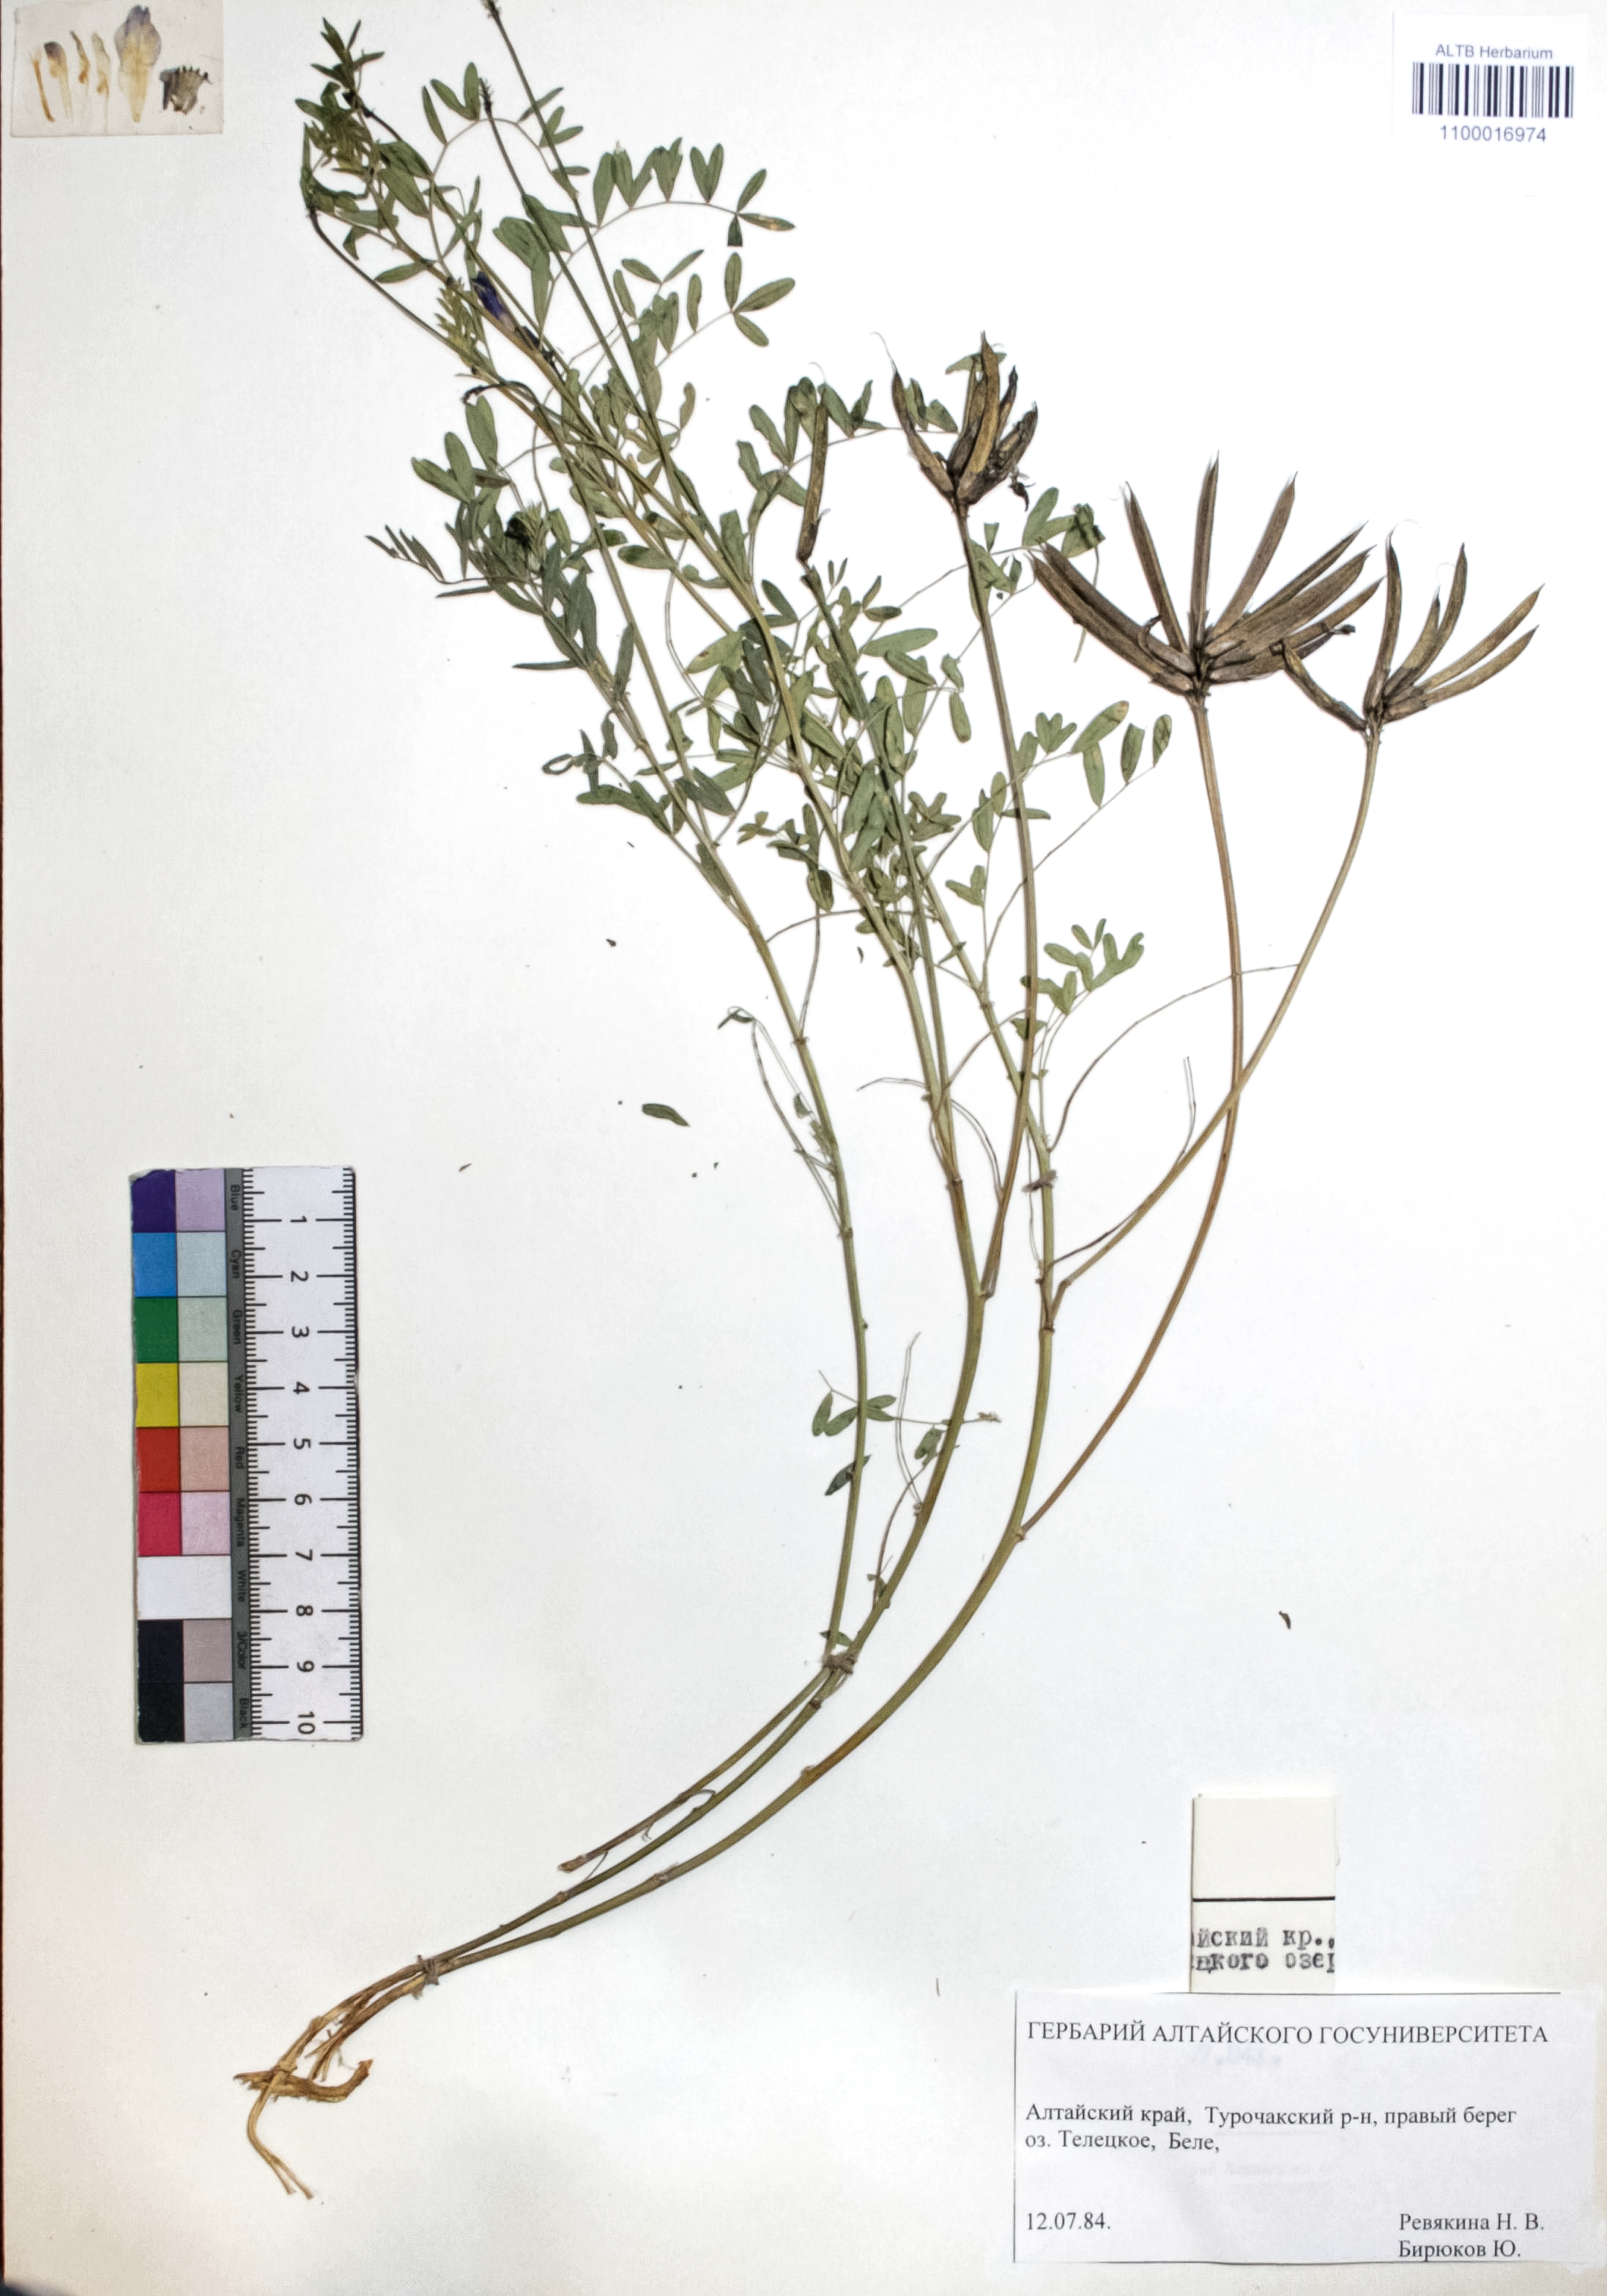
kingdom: Plantae
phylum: Tracheophyta
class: Magnoliopsida
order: Fabales
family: Fabaceae
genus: Astragalus
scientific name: Astragalus ceratoides
